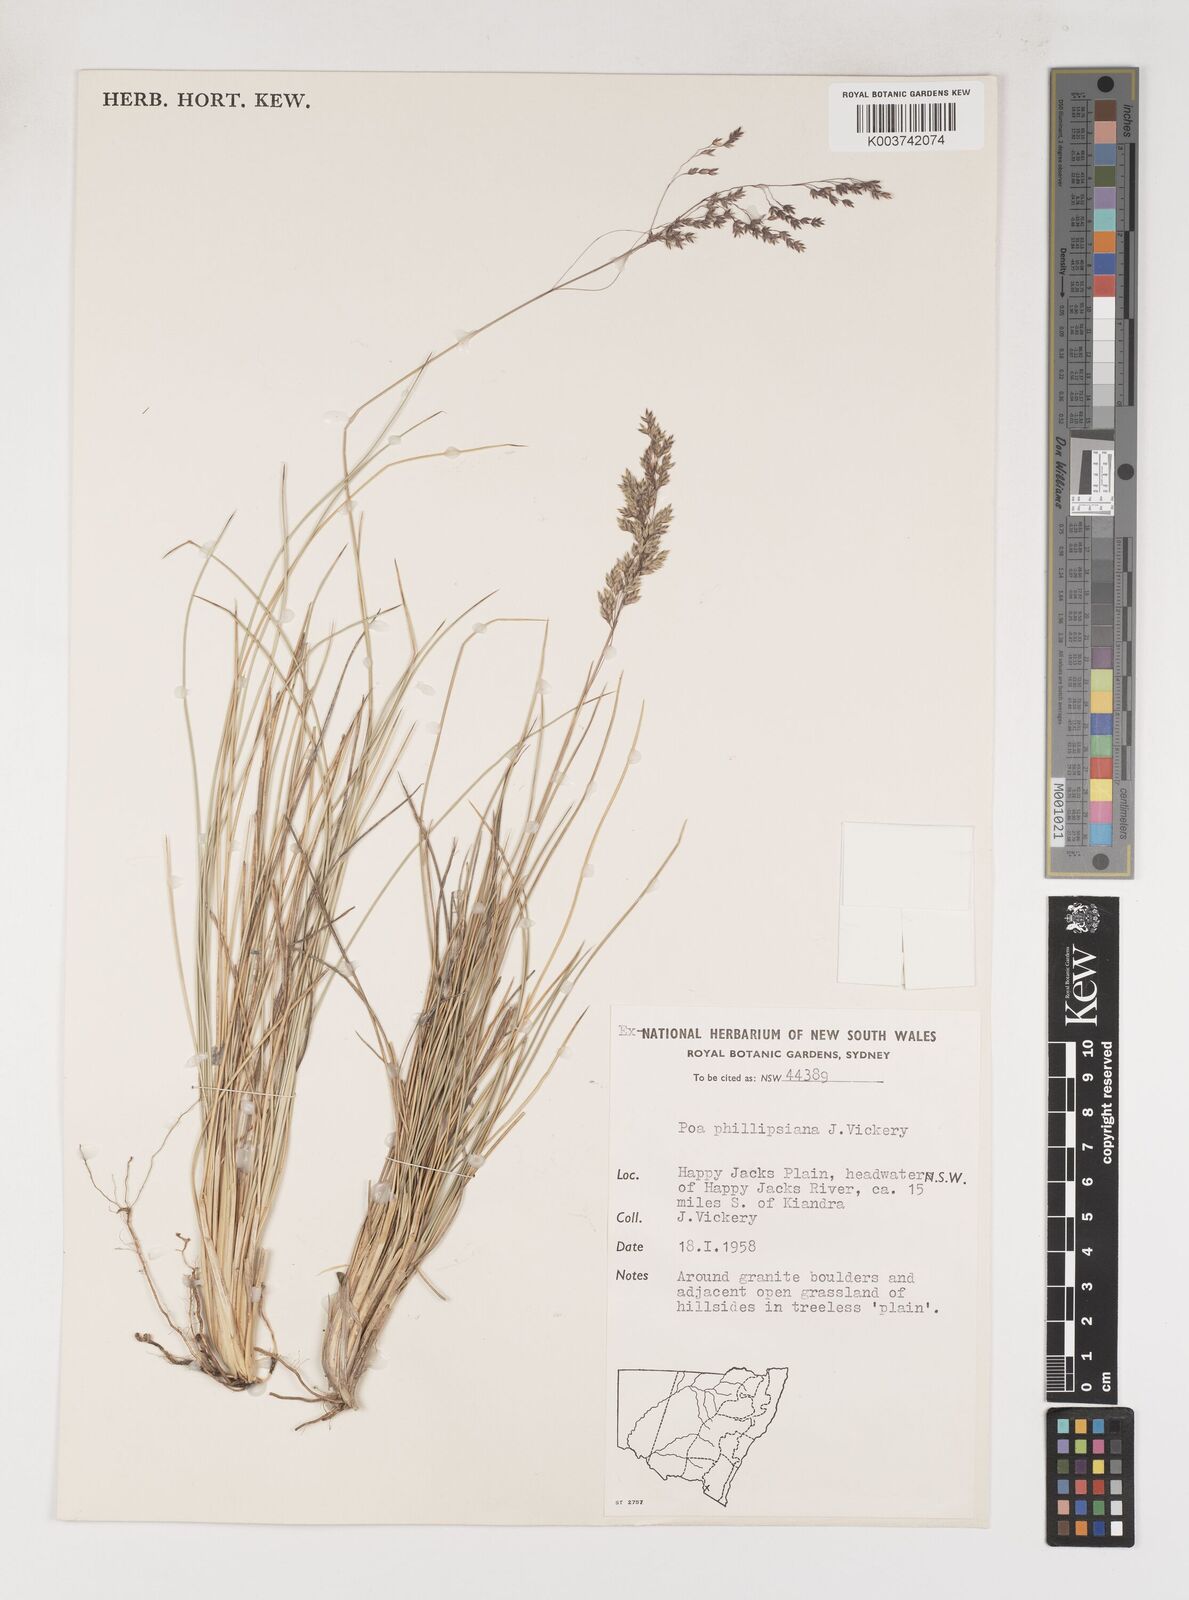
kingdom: Plantae
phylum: Tracheophyta
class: Liliopsida
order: Poales
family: Poaceae
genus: Poa
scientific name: Poa phillipsiana
